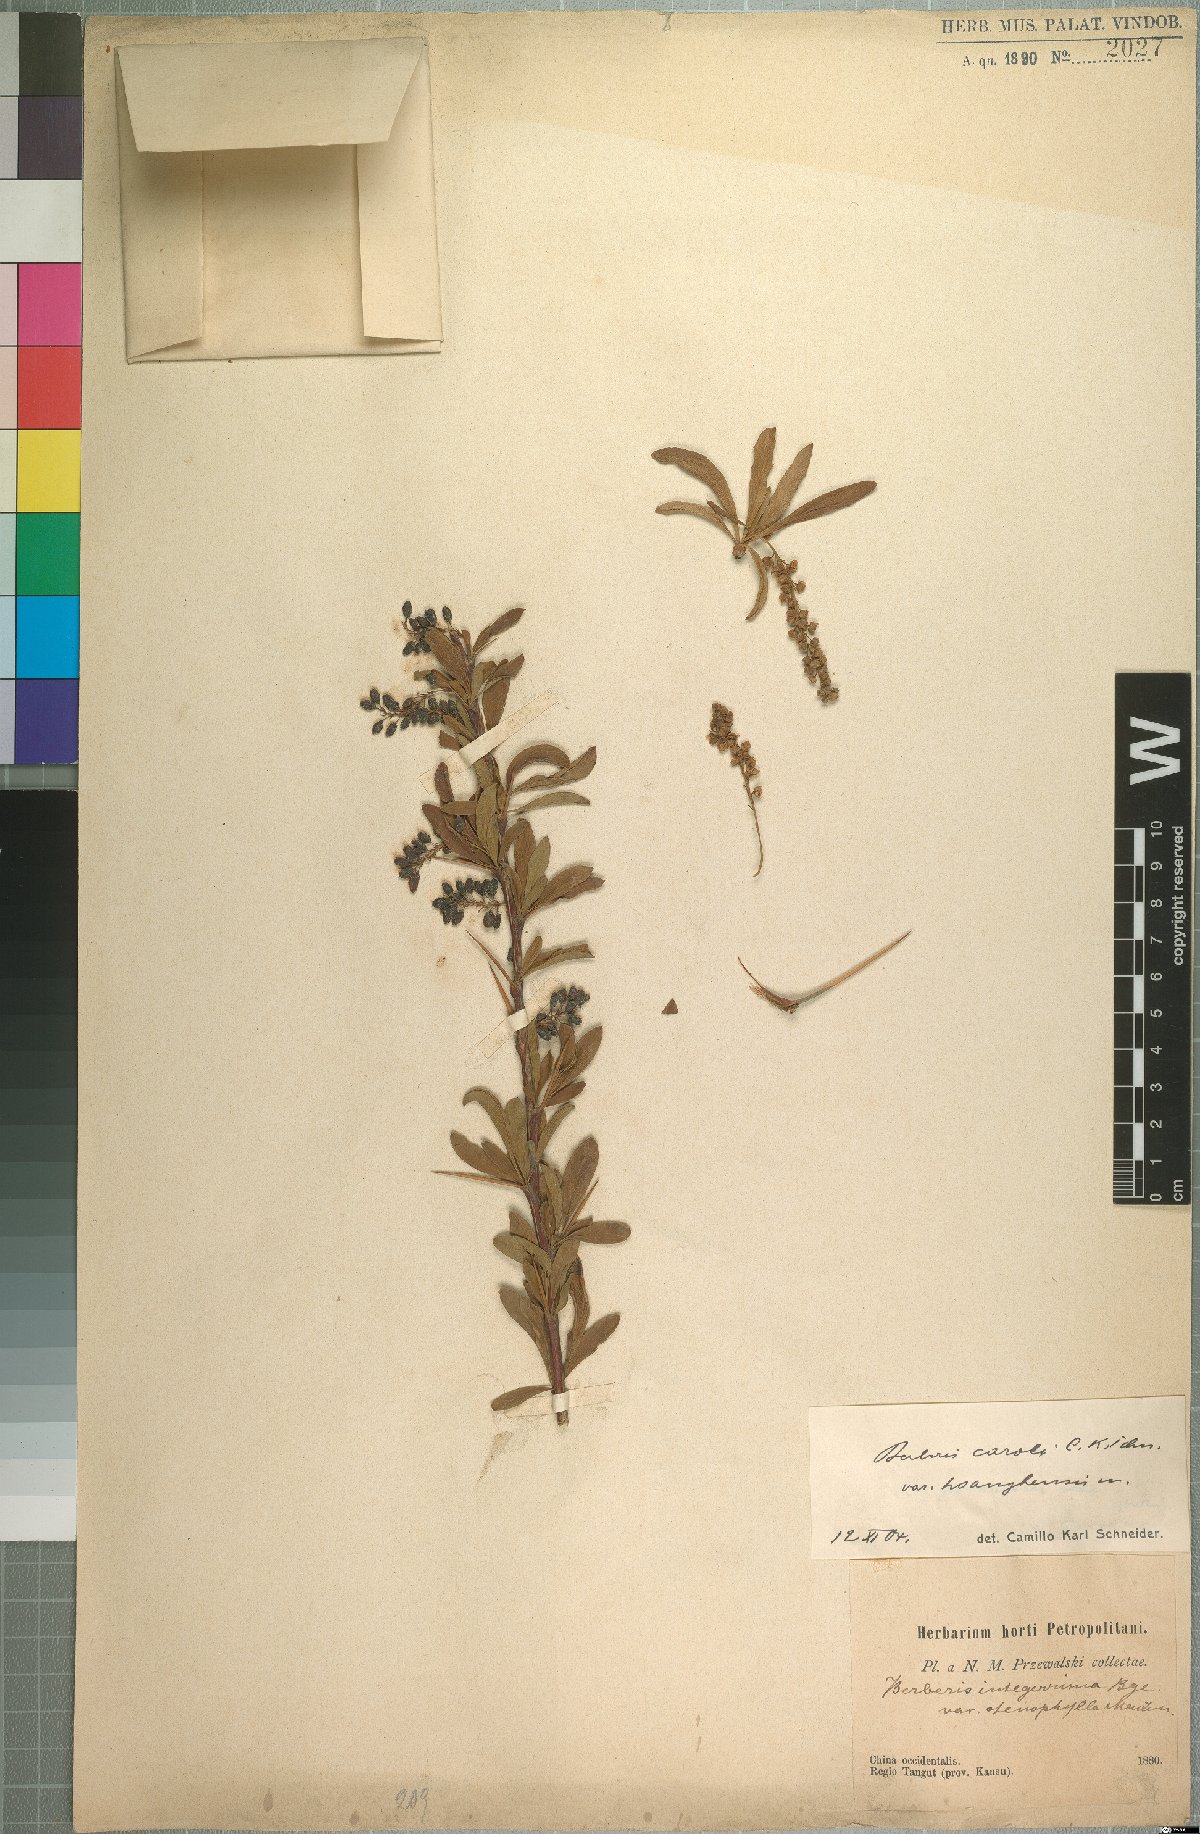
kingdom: Plantae
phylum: Tracheophyta
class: Magnoliopsida
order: Ranunculales
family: Berberidaceae
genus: Berberis
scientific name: Berberis caroli
